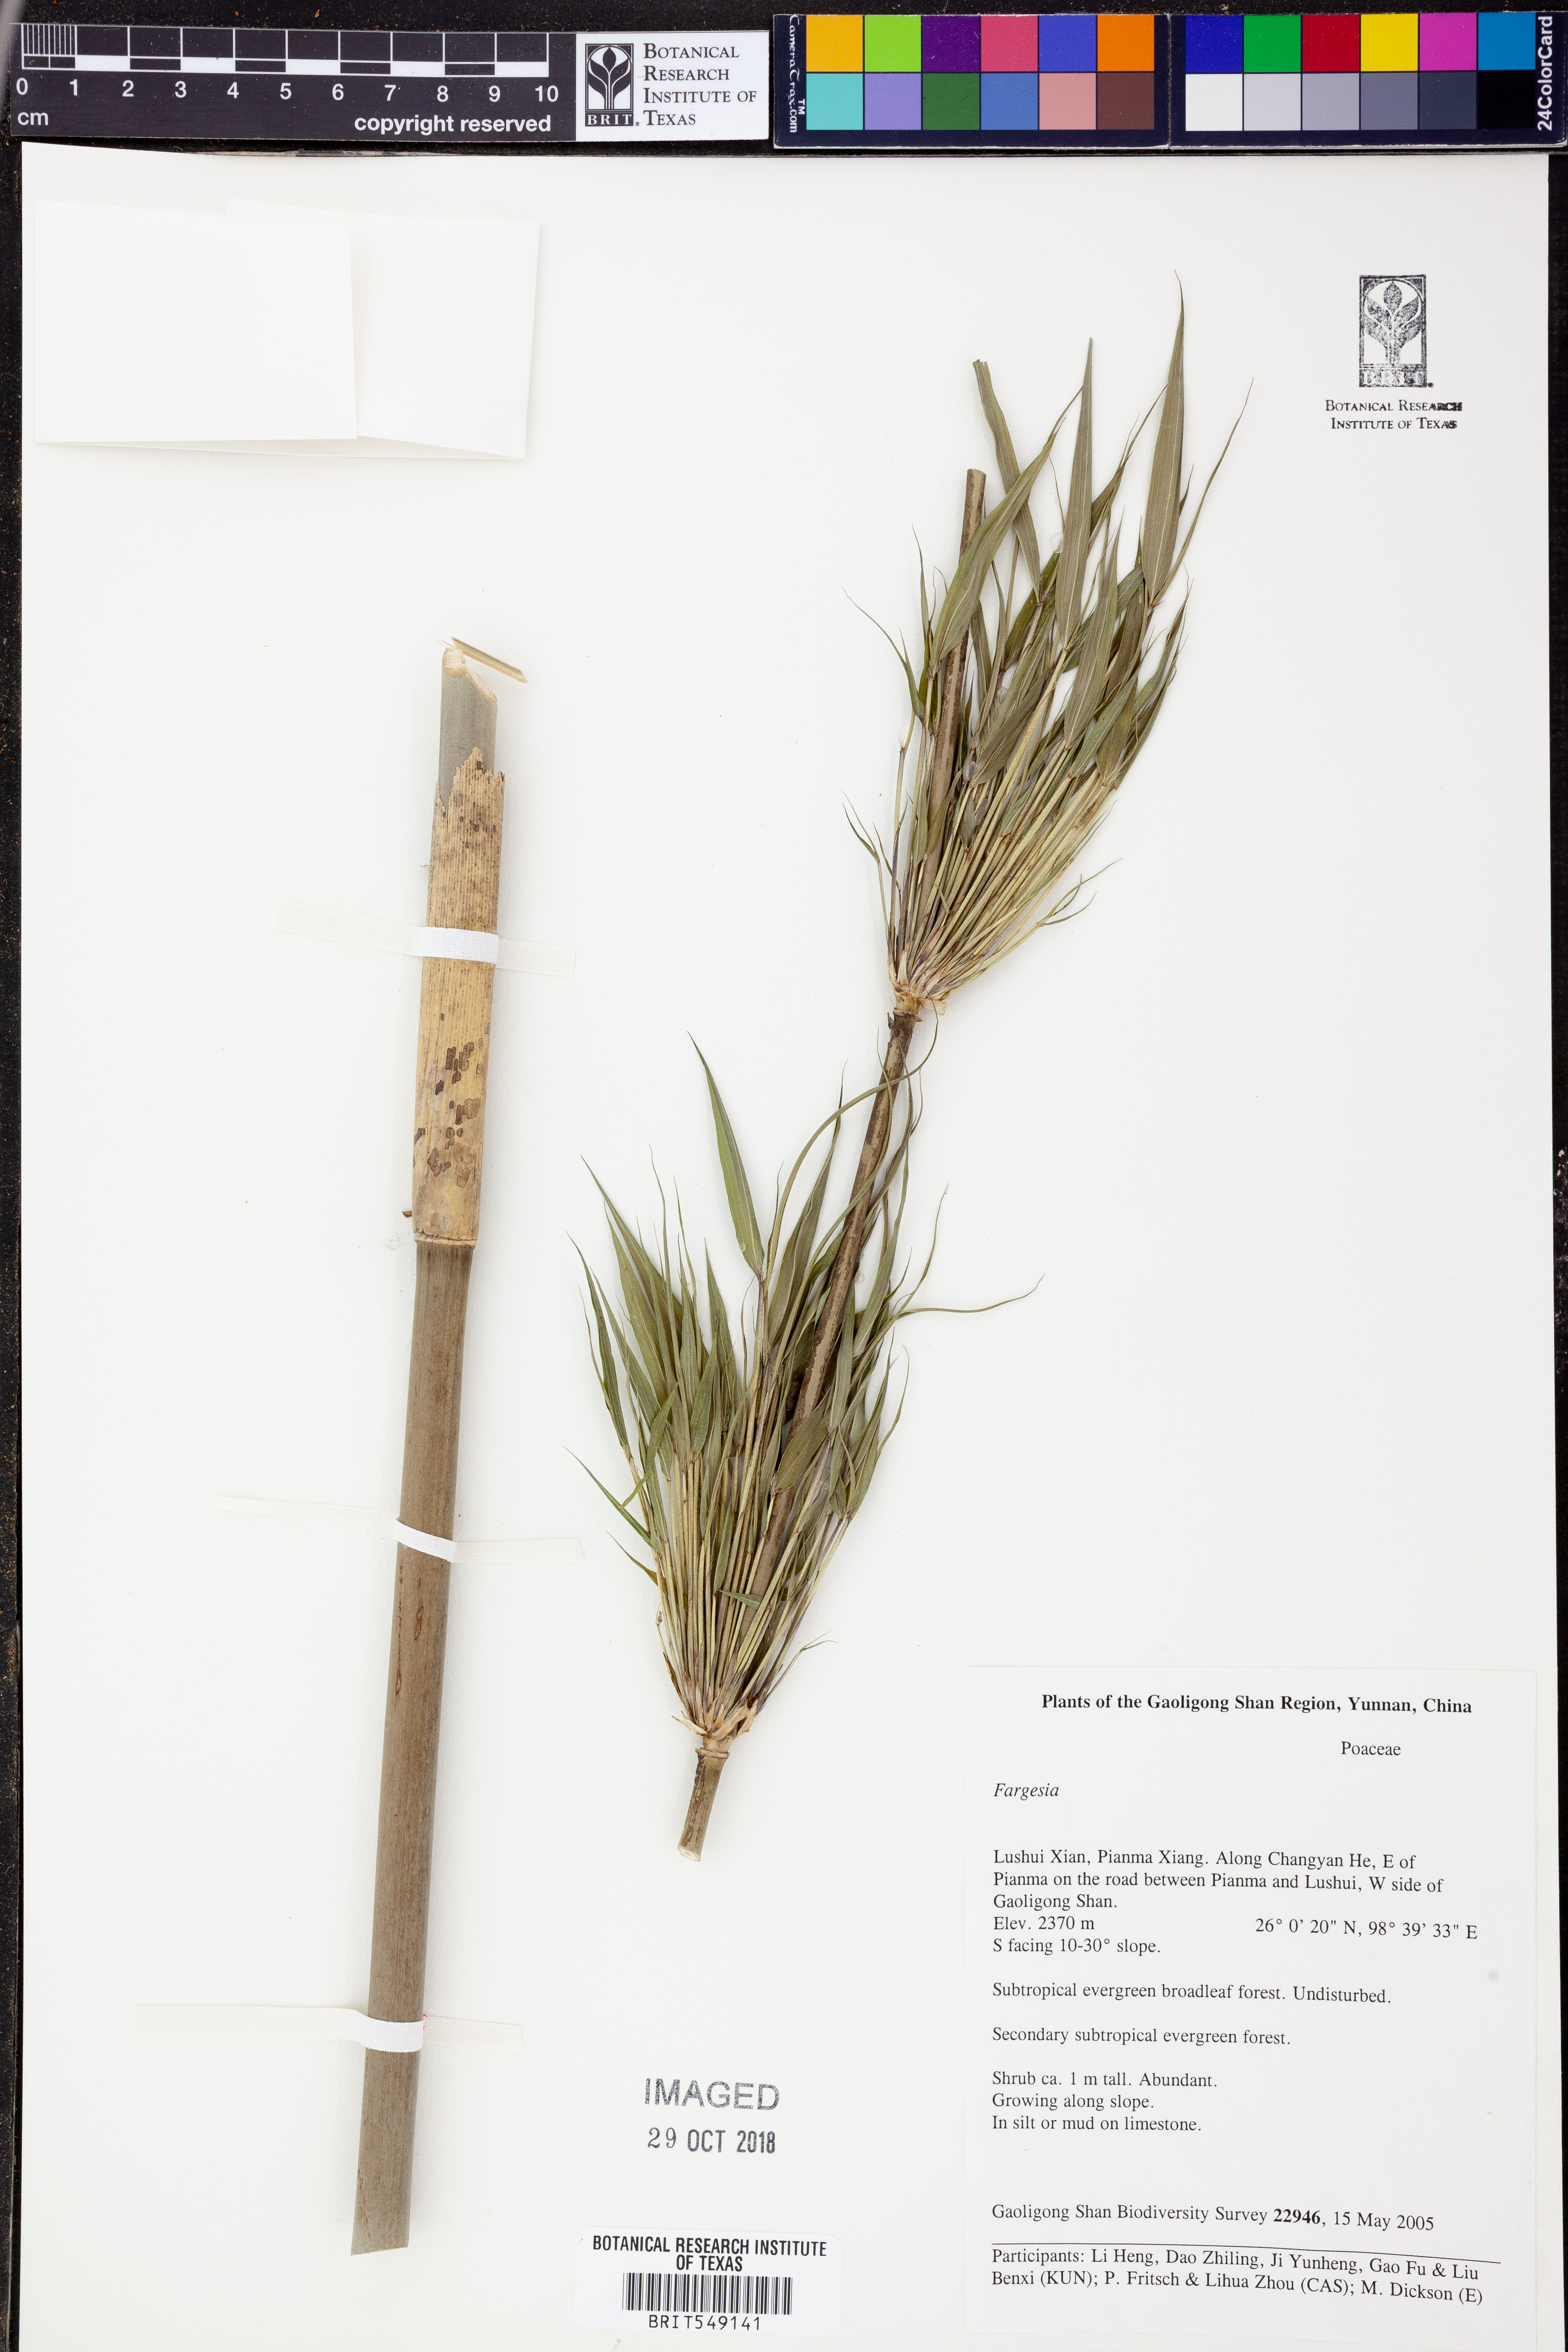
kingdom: Plantae
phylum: Tracheophyta
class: Liliopsida
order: Poales
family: Poaceae
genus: Fargesia
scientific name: Fargesia
